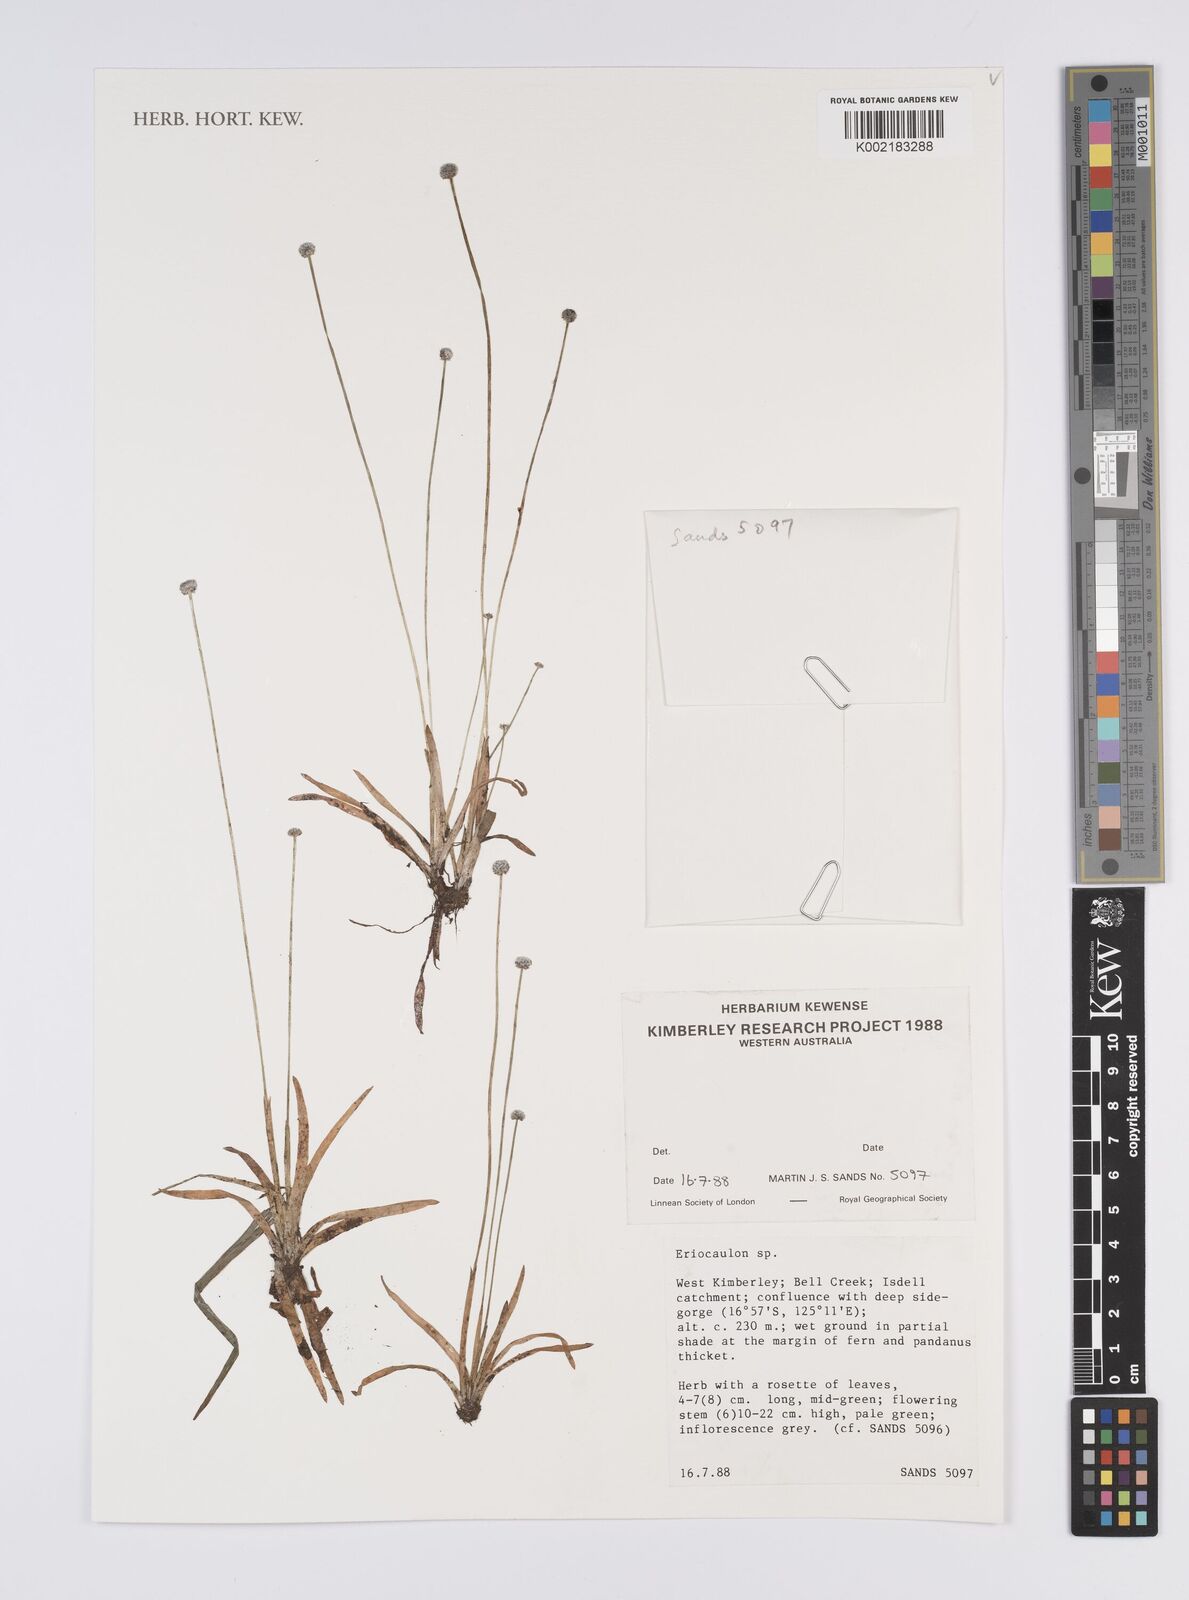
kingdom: Plantae
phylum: Tracheophyta
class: Liliopsida
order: Poales
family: Eriocaulaceae
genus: Eriocaulon
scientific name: Eriocaulon
